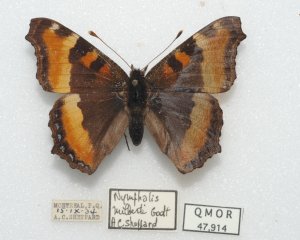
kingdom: Animalia
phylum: Arthropoda
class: Insecta
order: Lepidoptera
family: Nymphalidae
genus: Aglais
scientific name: Aglais milberti
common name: Milbert's Tortoiseshell
